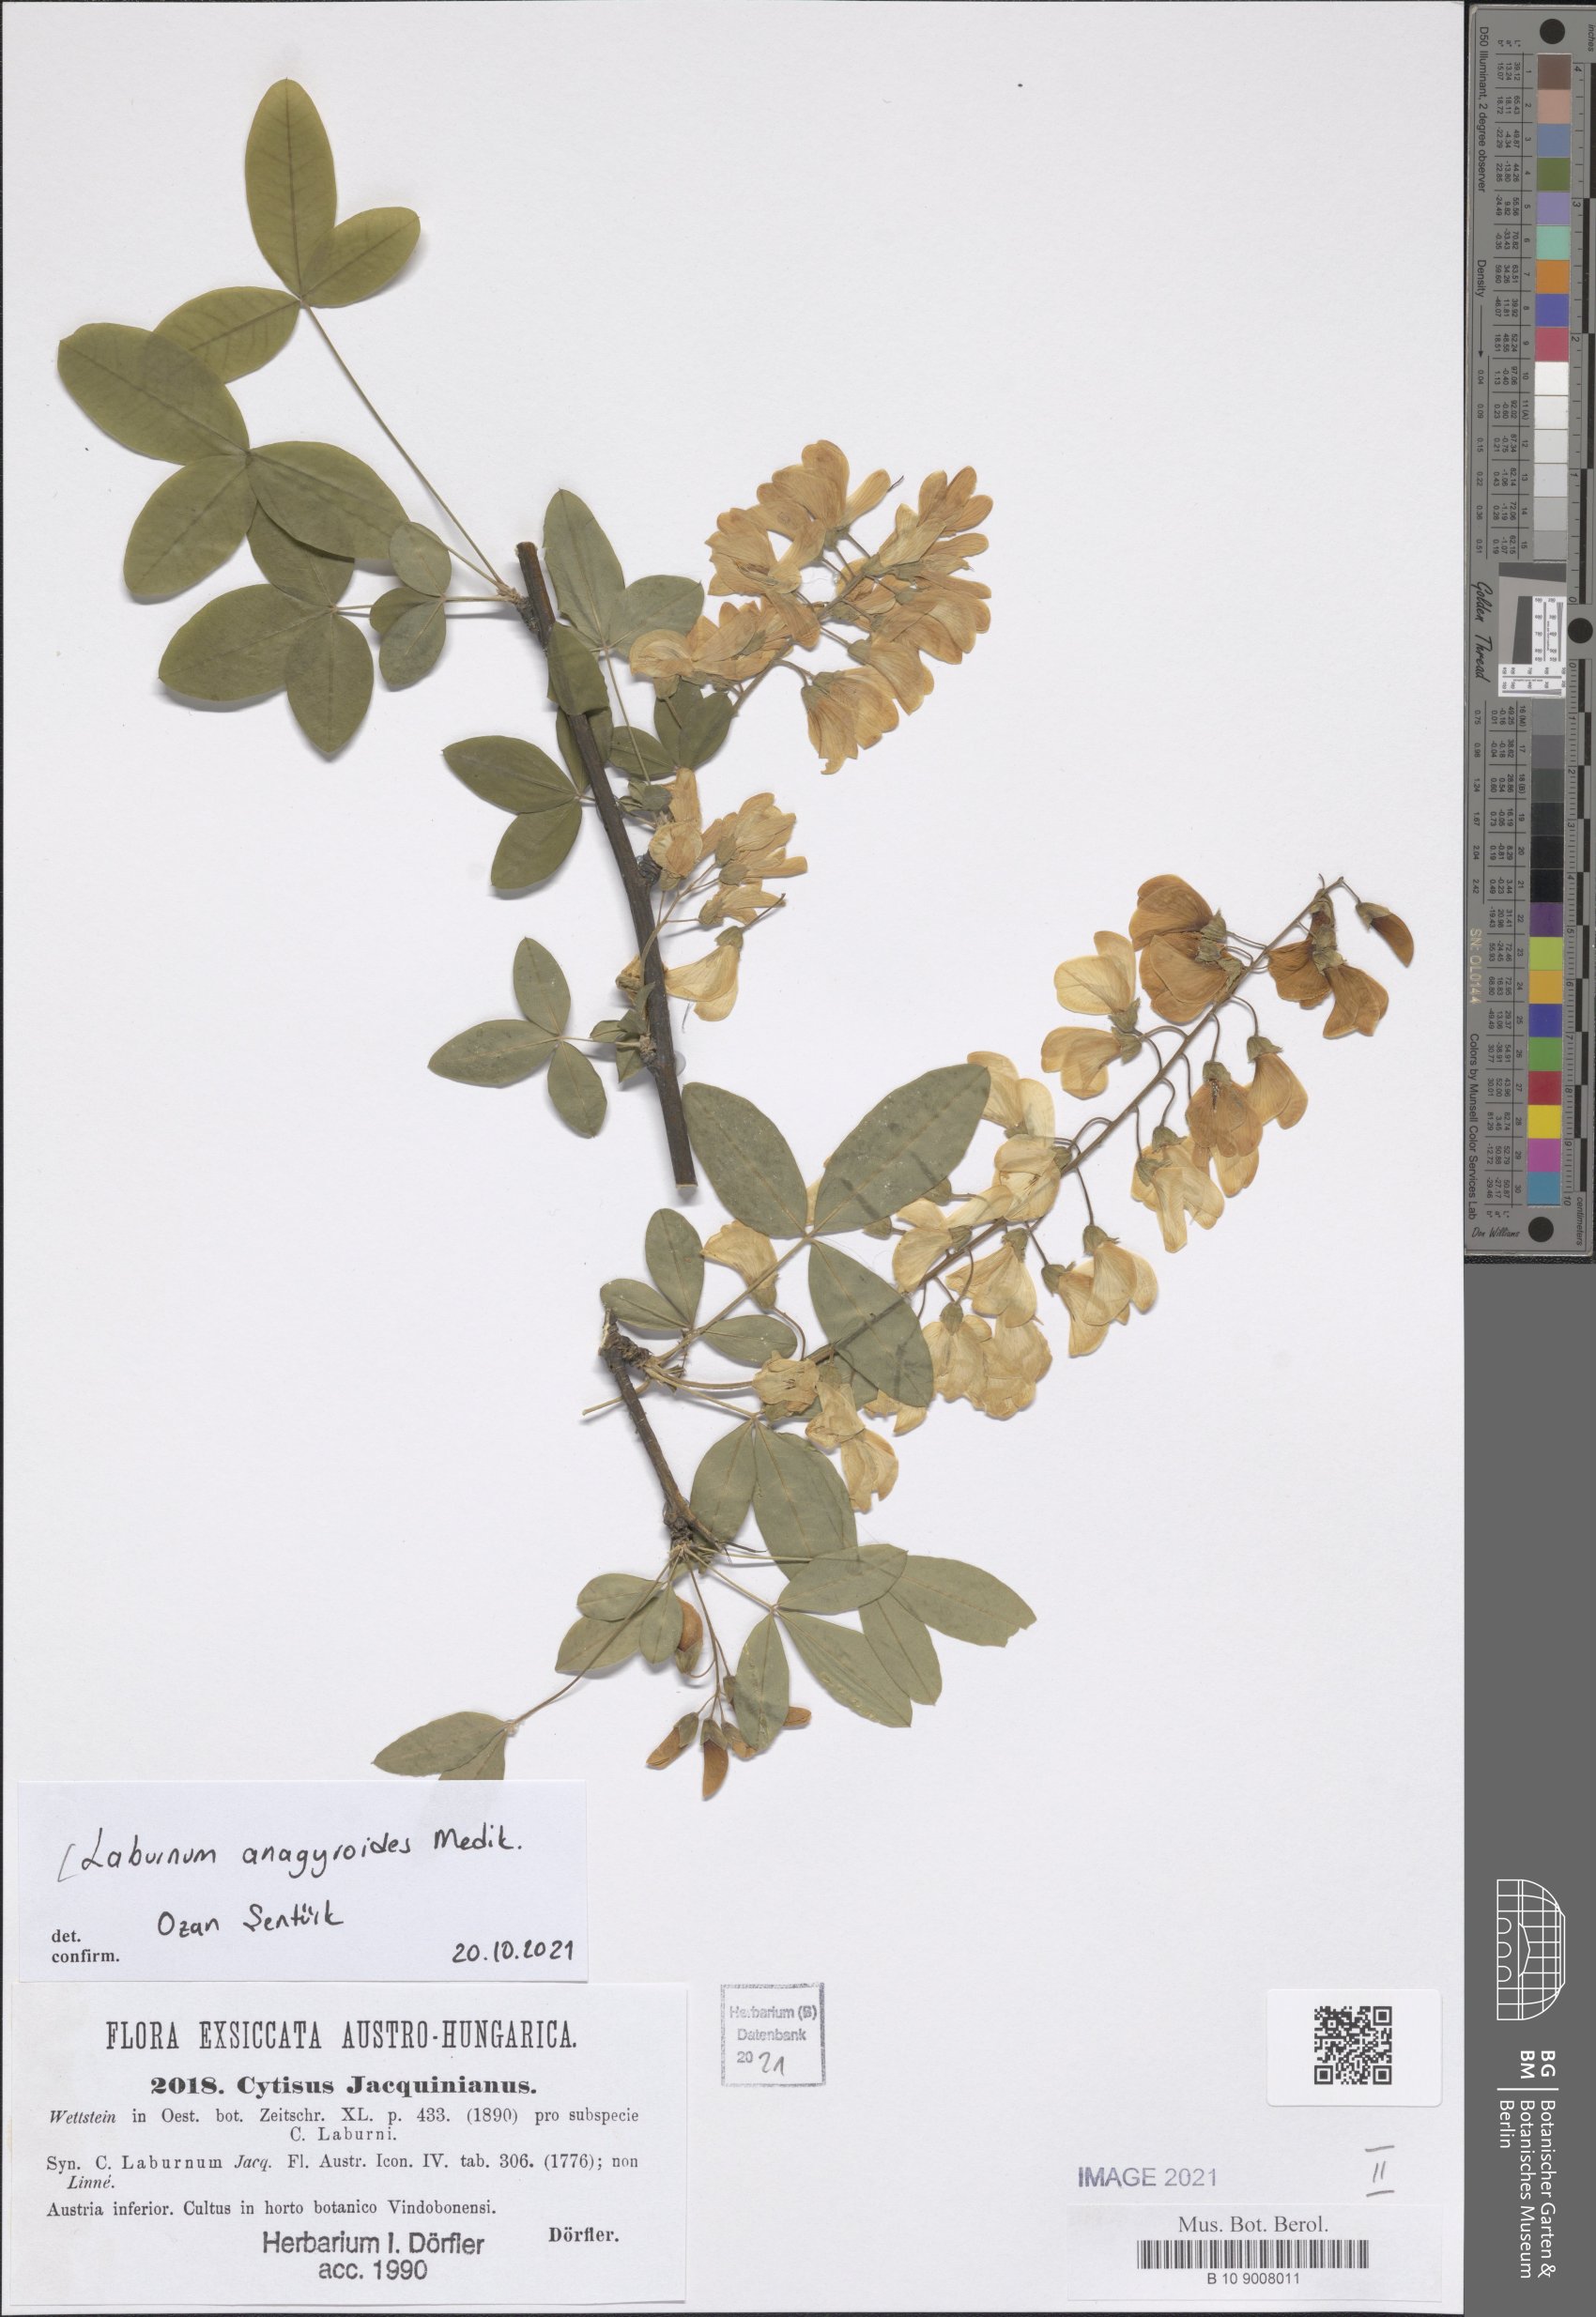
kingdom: Plantae
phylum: Tracheophyta
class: Magnoliopsida
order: Fabales
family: Fabaceae
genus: Laburnum
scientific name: Laburnum anagyroides
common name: Laburnum
